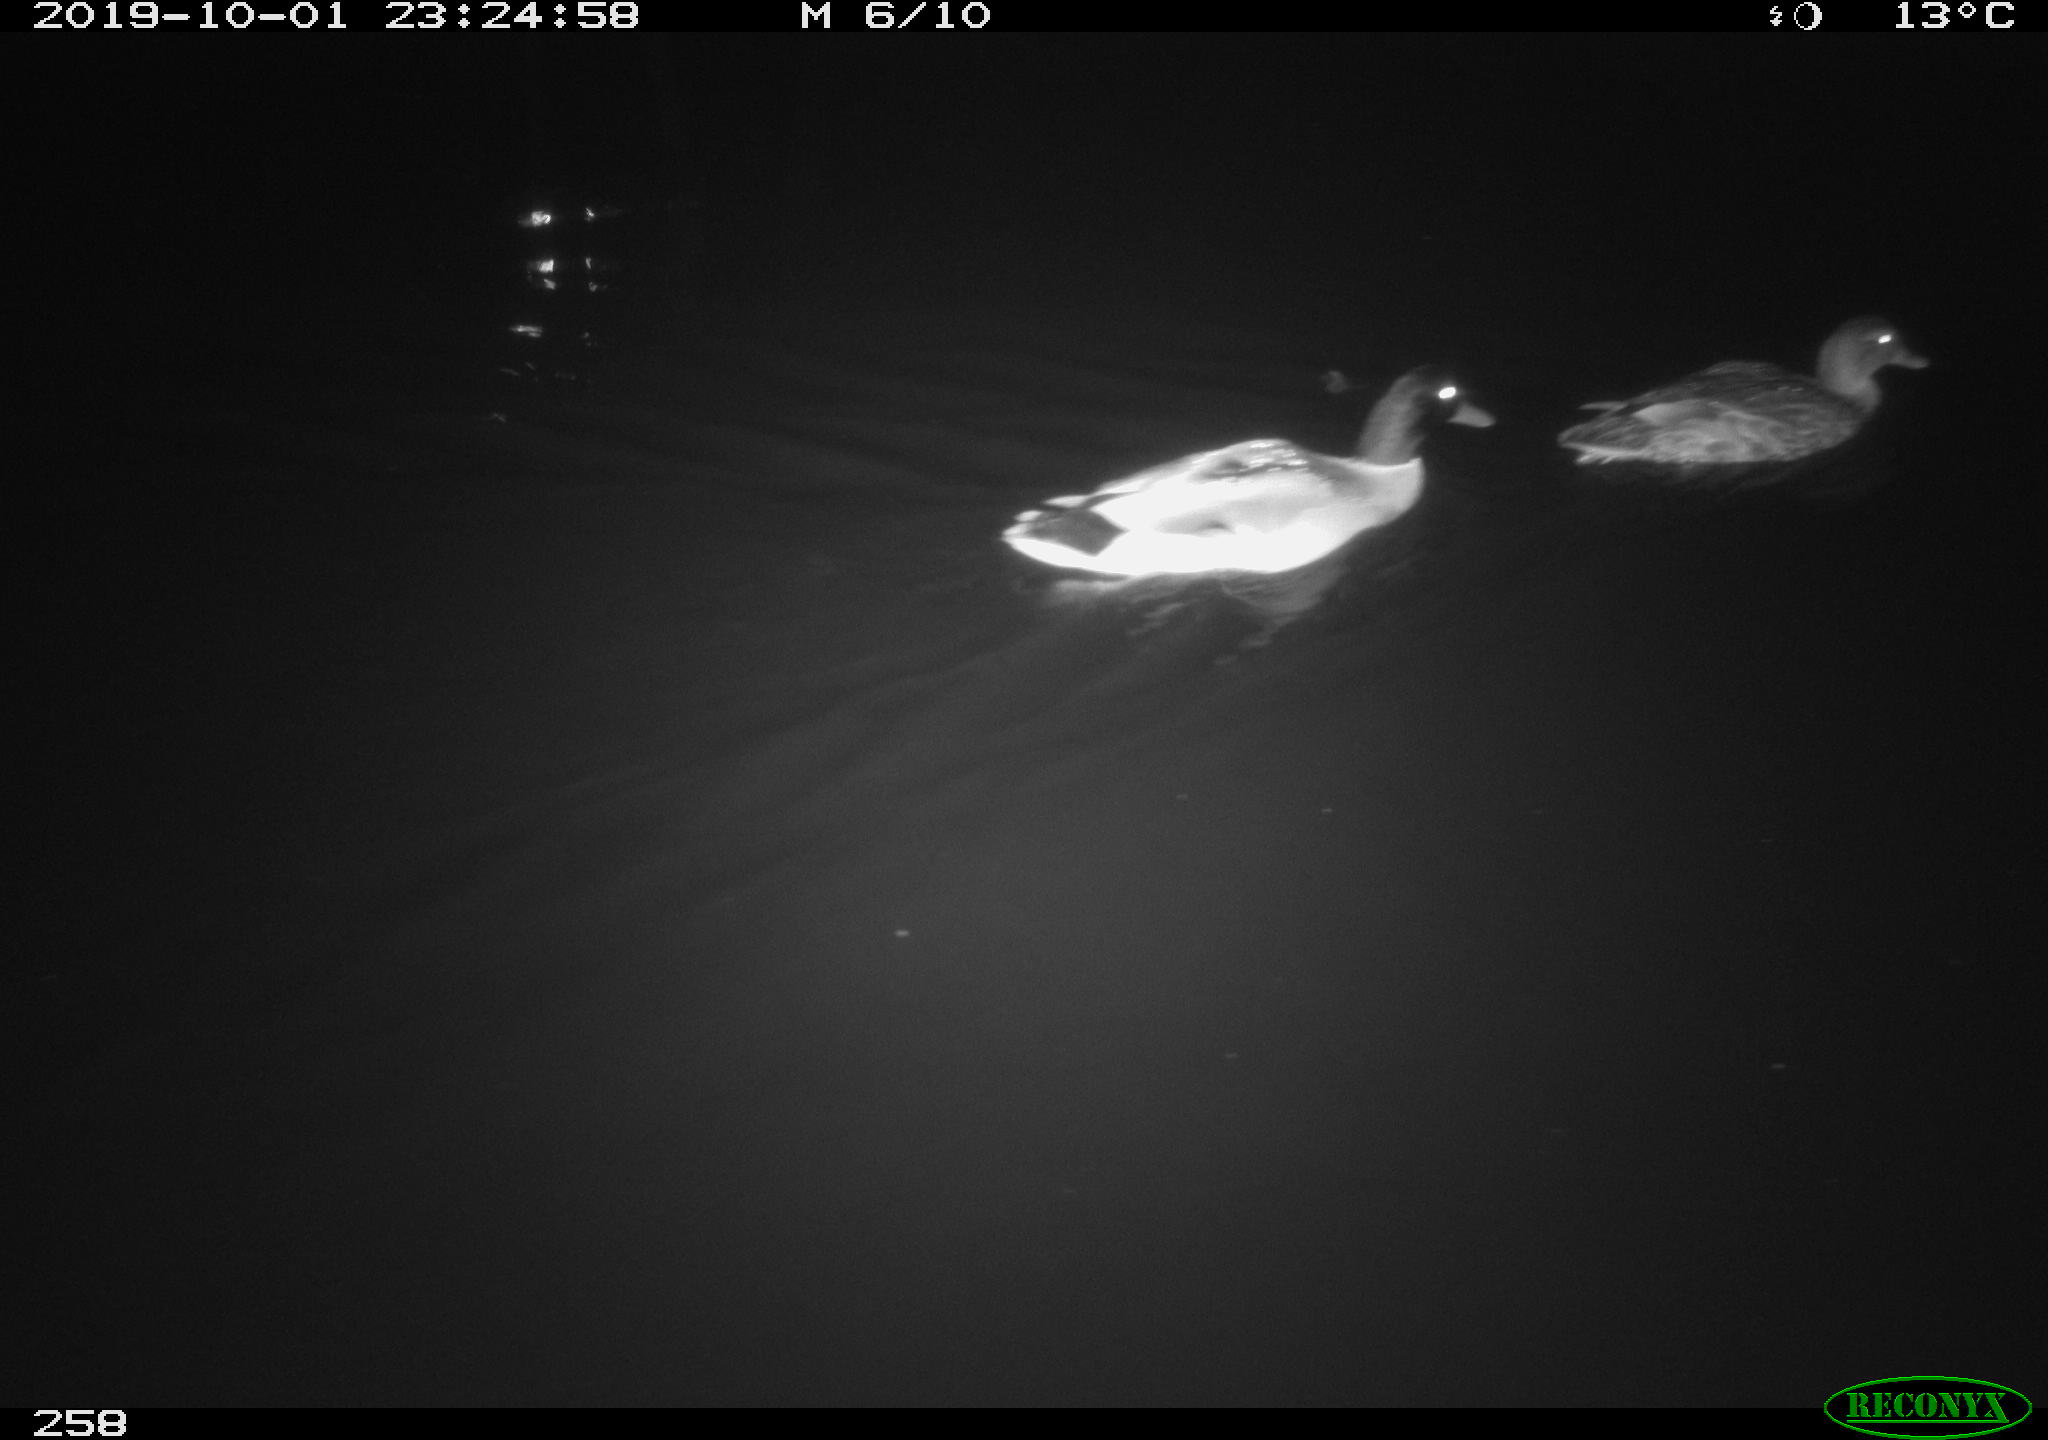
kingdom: Animalia
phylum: Chordata
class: Aves
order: Anseriformes
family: Anatidae
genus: Anas
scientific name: Anas platyrhynchos
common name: Mallard
